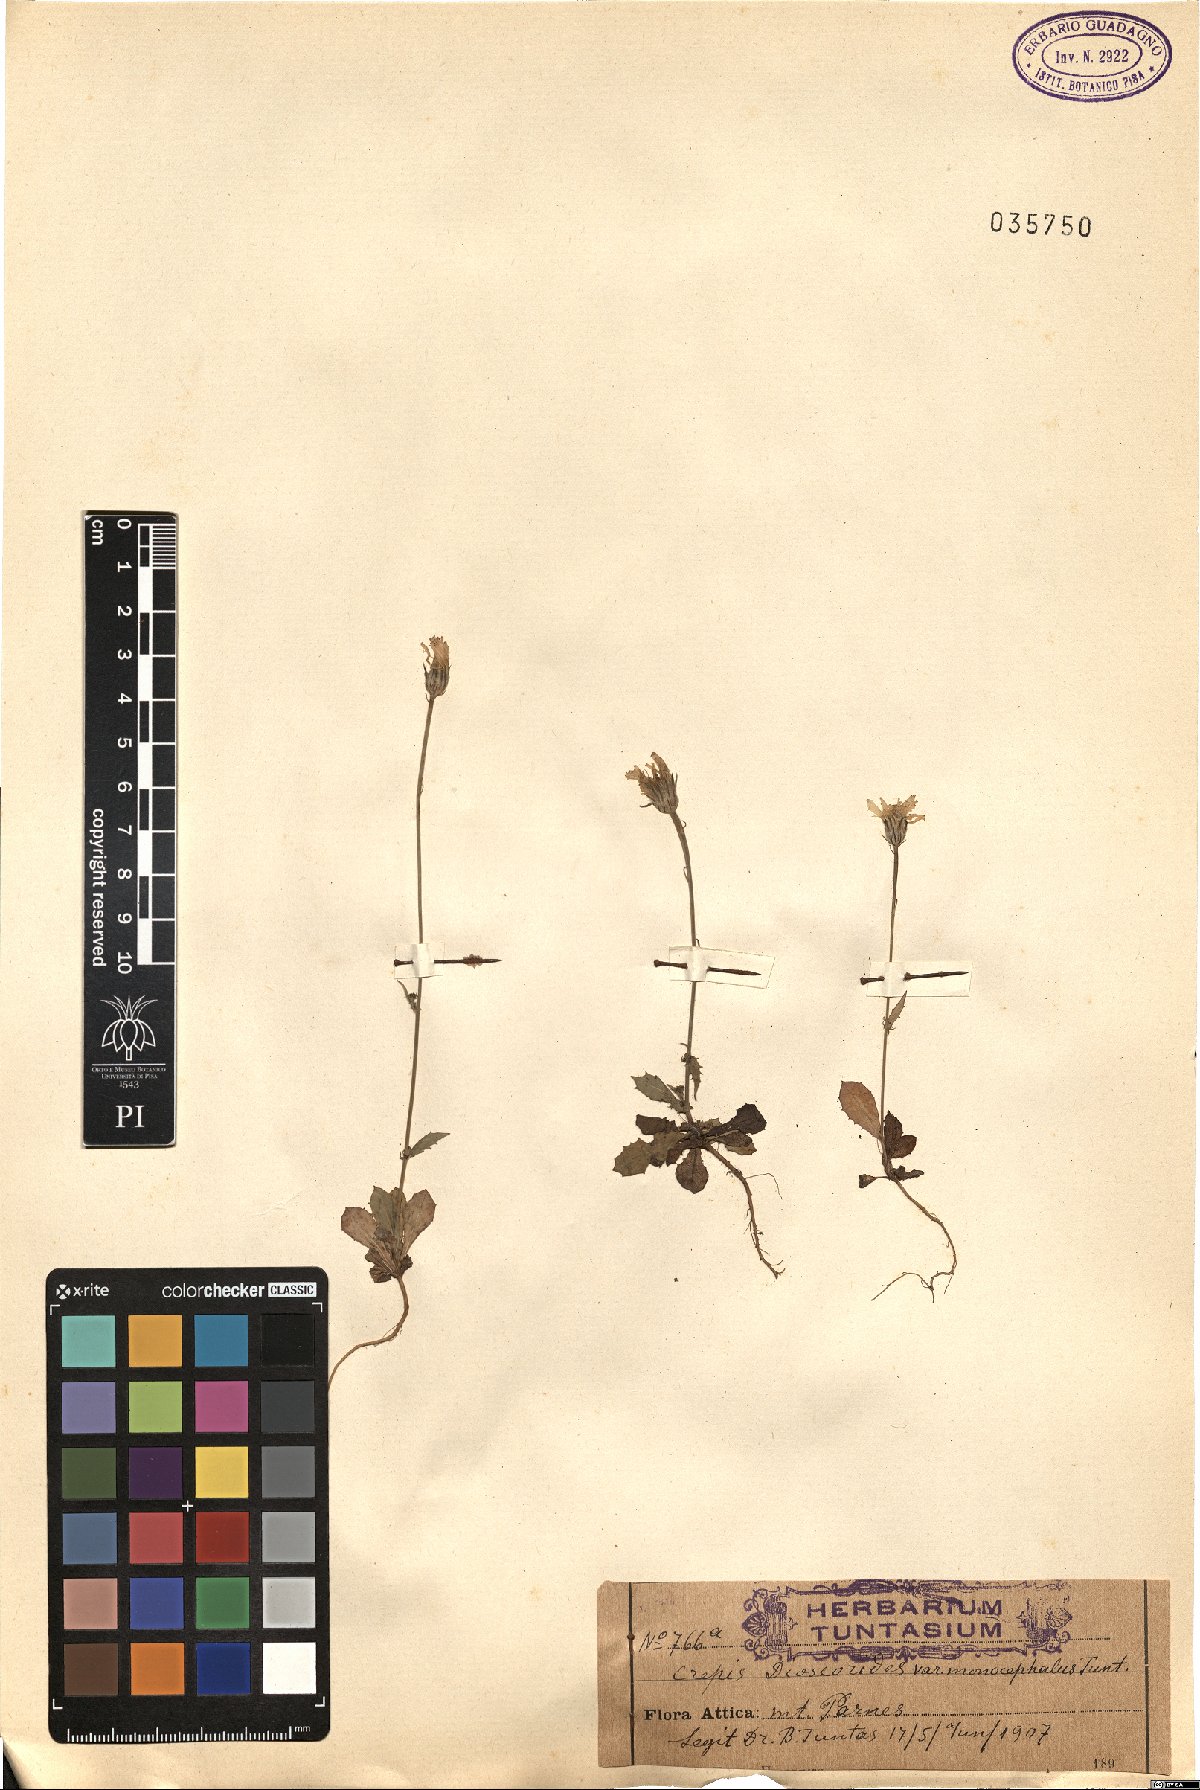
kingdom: Plantae
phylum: Tracheophyta
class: Magnoliopsida
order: Asterales
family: Asteraceae
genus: Crepis
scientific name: Crepis dioscoridis
